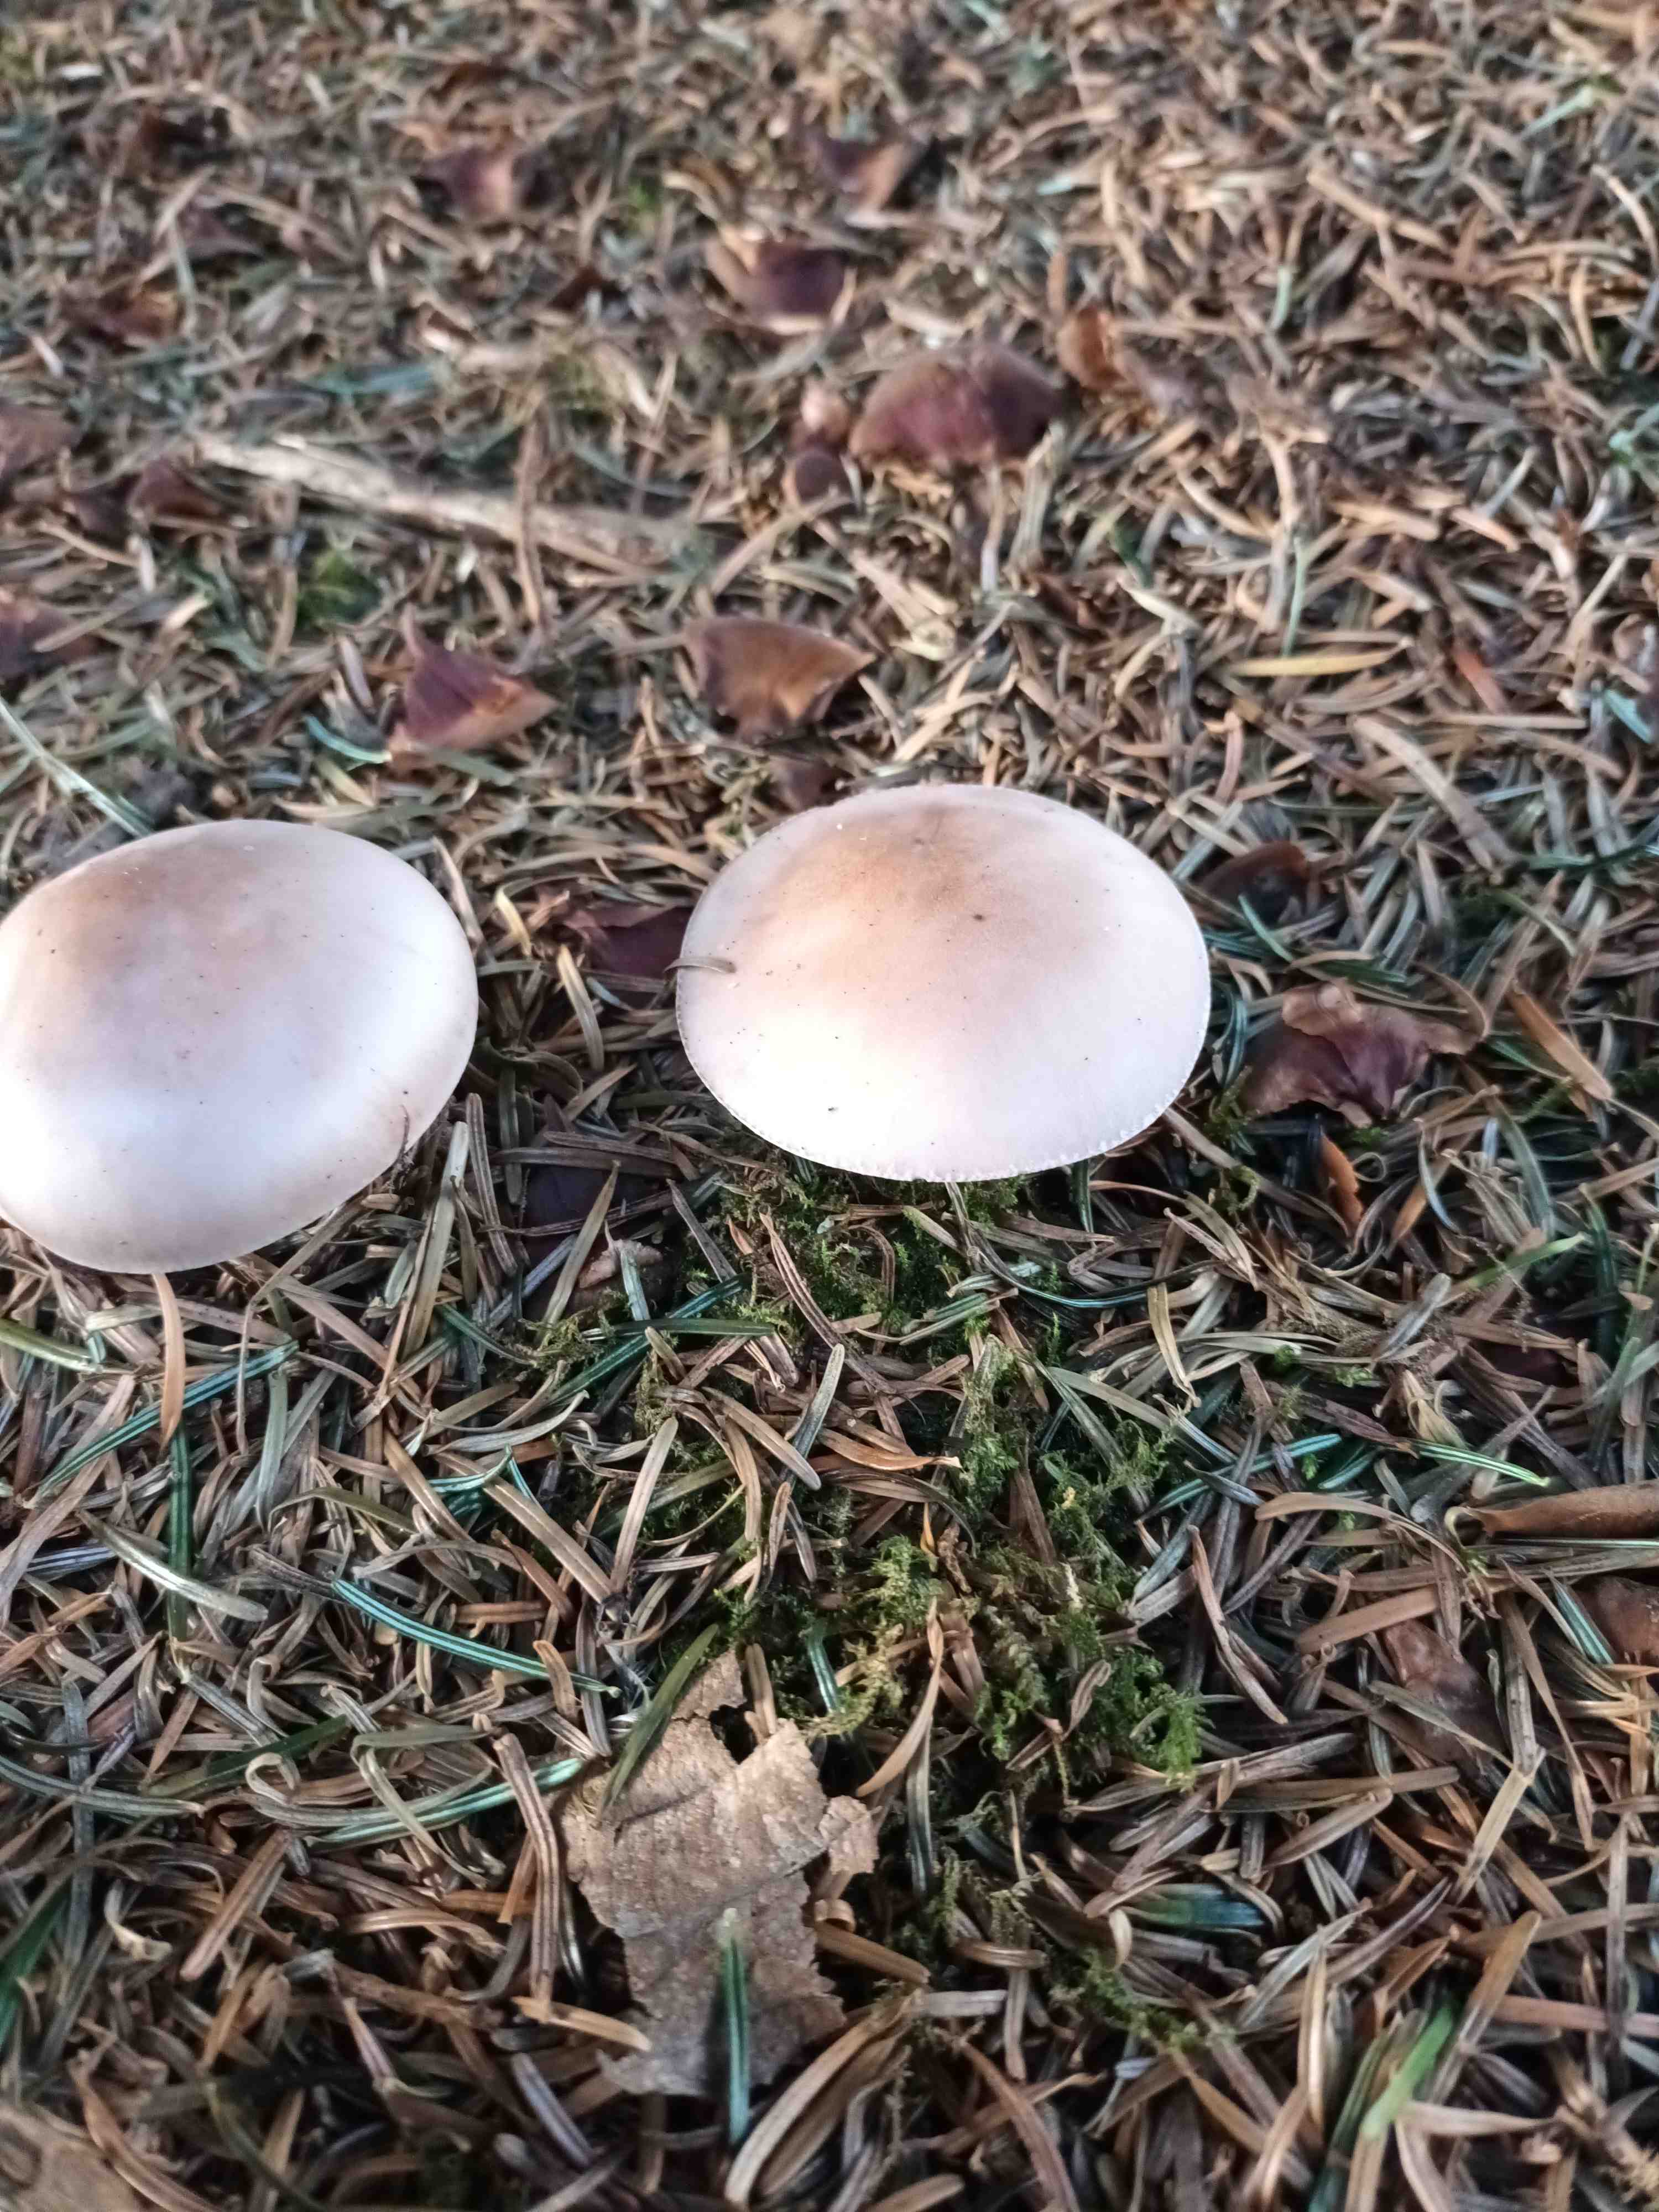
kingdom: Fungi
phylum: Basidiomycota
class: Agaricomycetes
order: Agaricales
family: Tricholomataceae
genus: Lepista
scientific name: Lepista nuda
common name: violet hekseringshat
